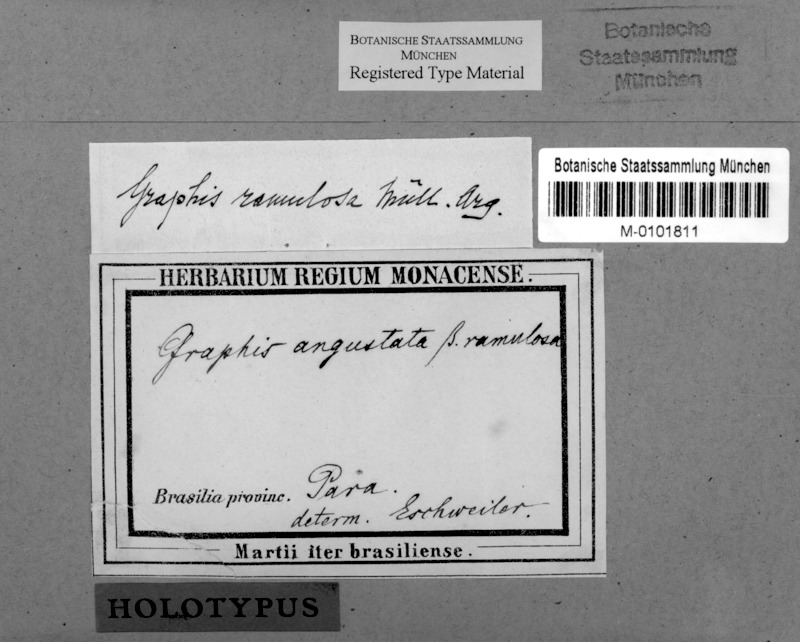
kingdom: Fungi
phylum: Ascomycota
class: Lecanoromycetes
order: Ostropales
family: Graphidaceae
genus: Graphis
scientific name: Graphis
